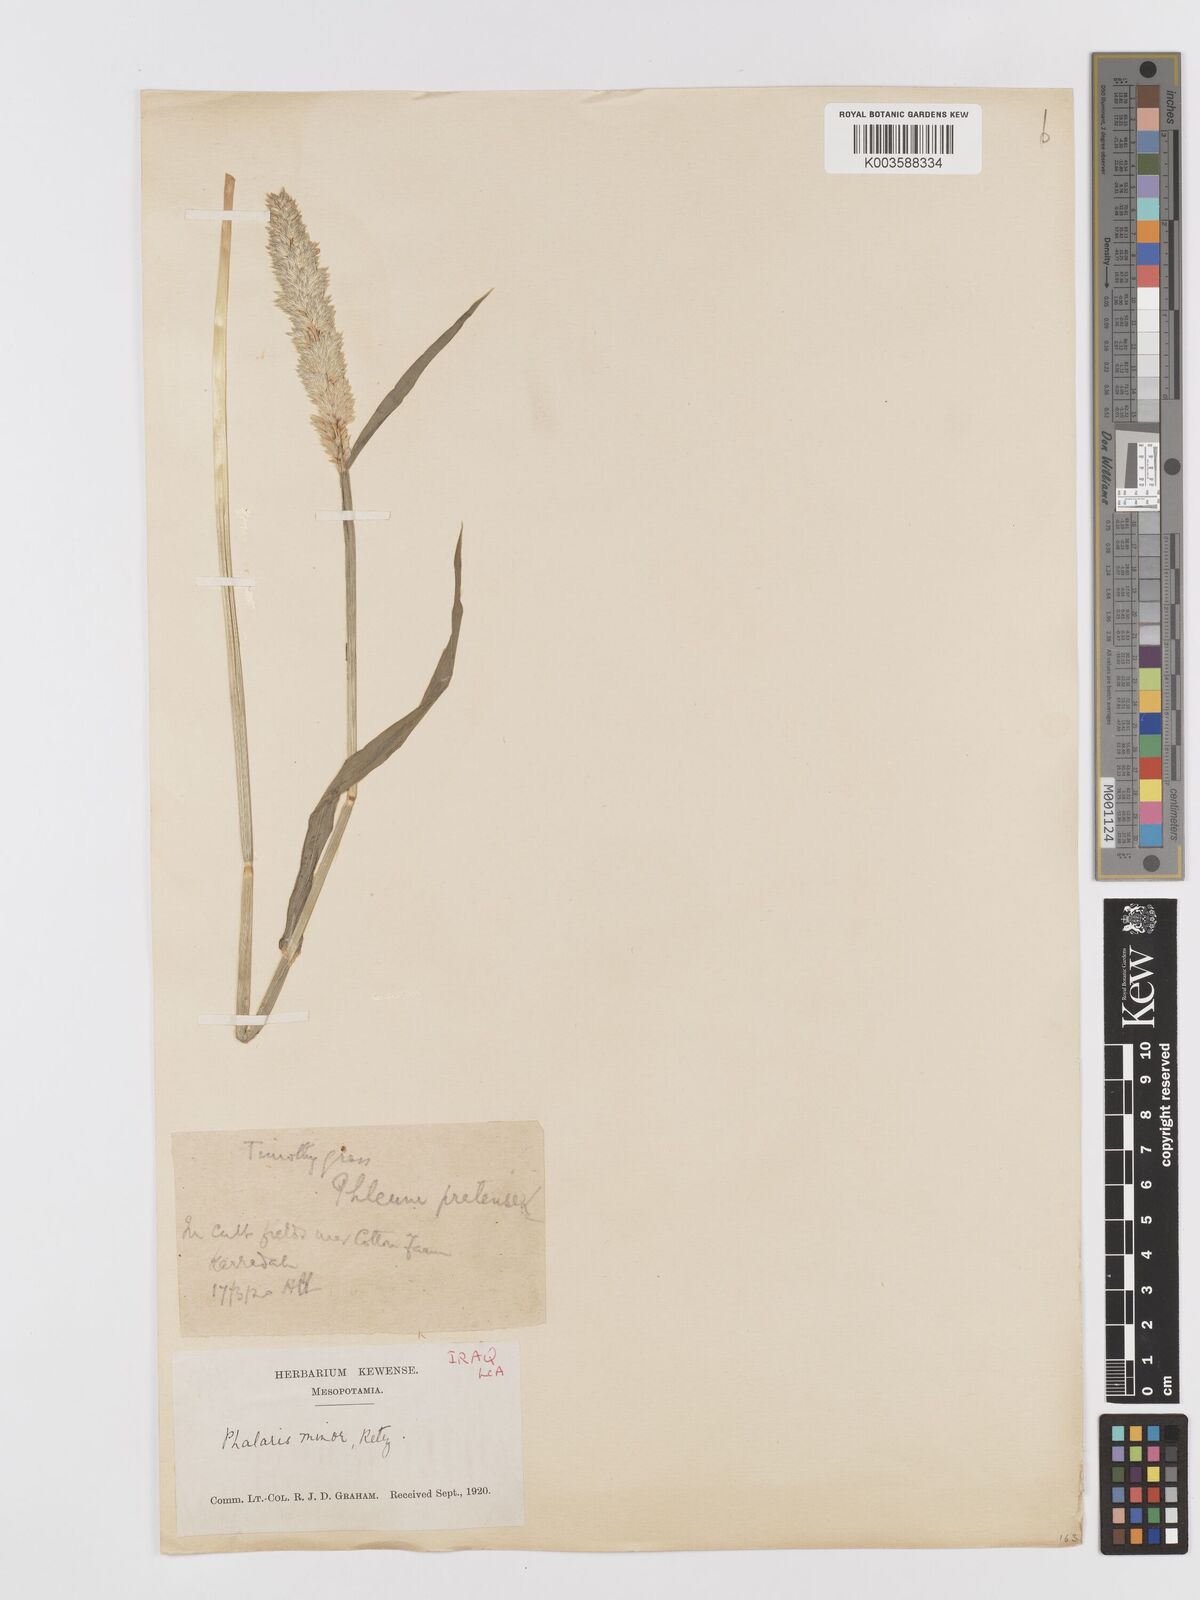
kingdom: Plantae
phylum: Tracheophyta
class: Liliopsida
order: Poales
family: Poaceae
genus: Phalaris
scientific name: Phalaris minor
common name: Littleseed canarygrass
